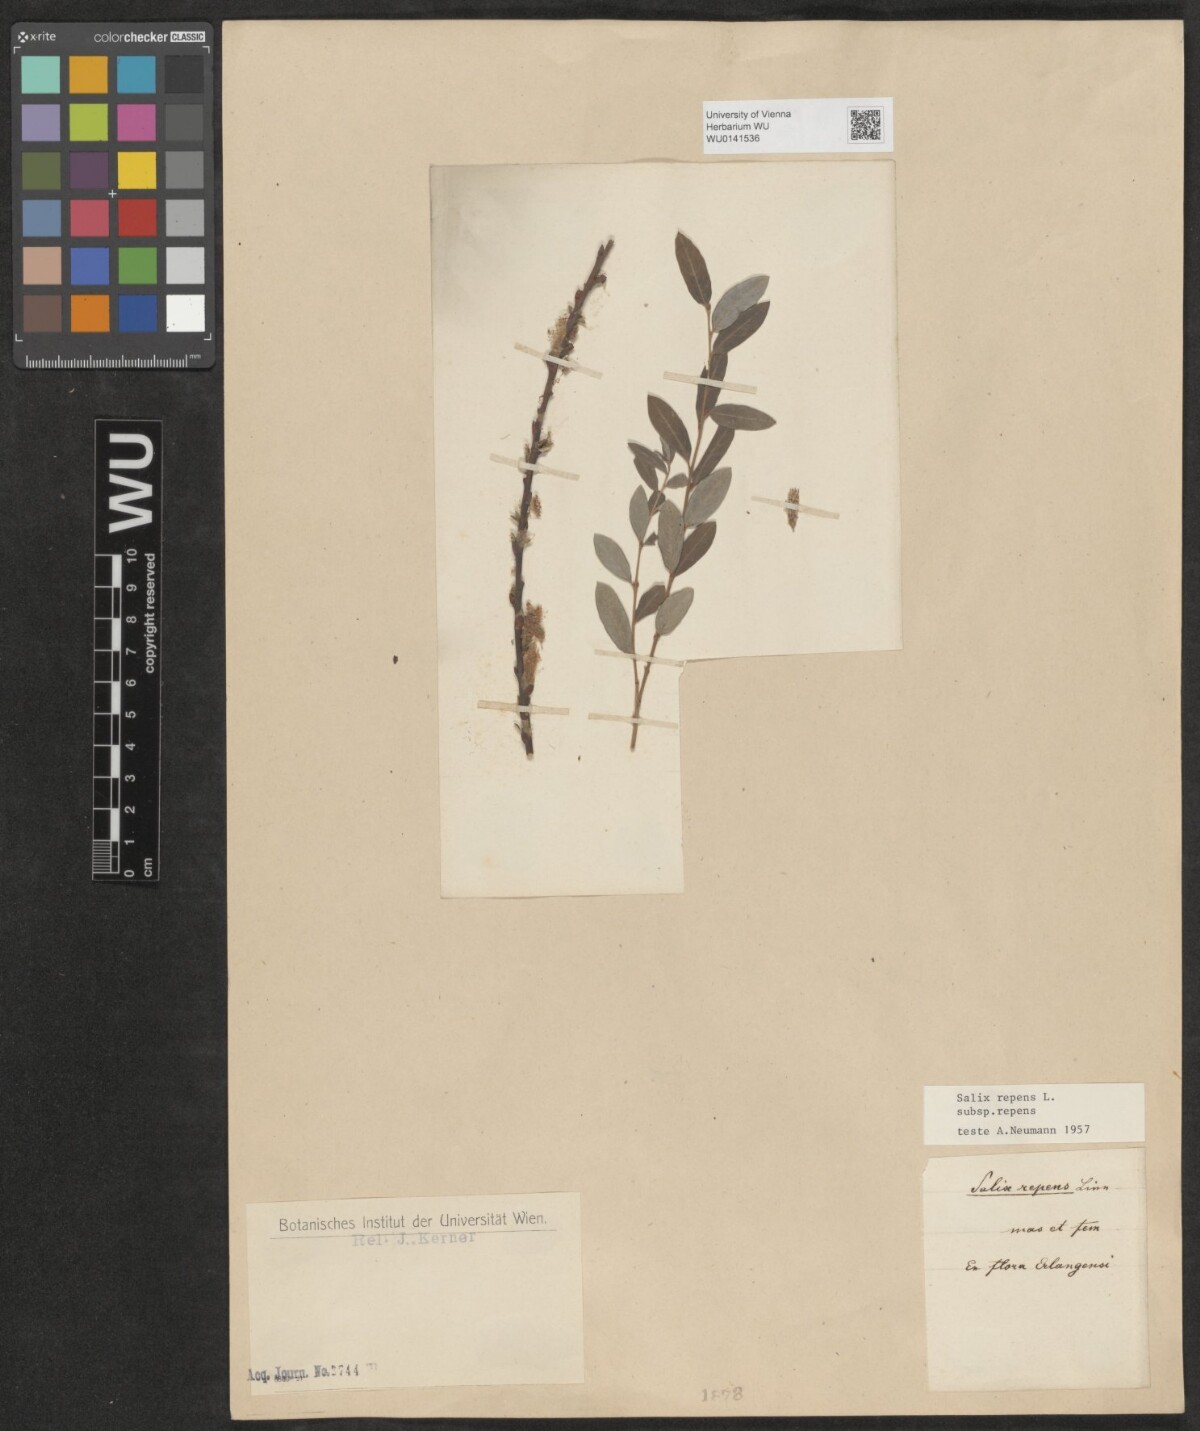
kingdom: Plantae
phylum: Tracheophyta
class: Magnoliopsida
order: Malpighiales
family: Salicaceae
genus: Salix
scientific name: Salix repens
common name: Creeping willow
